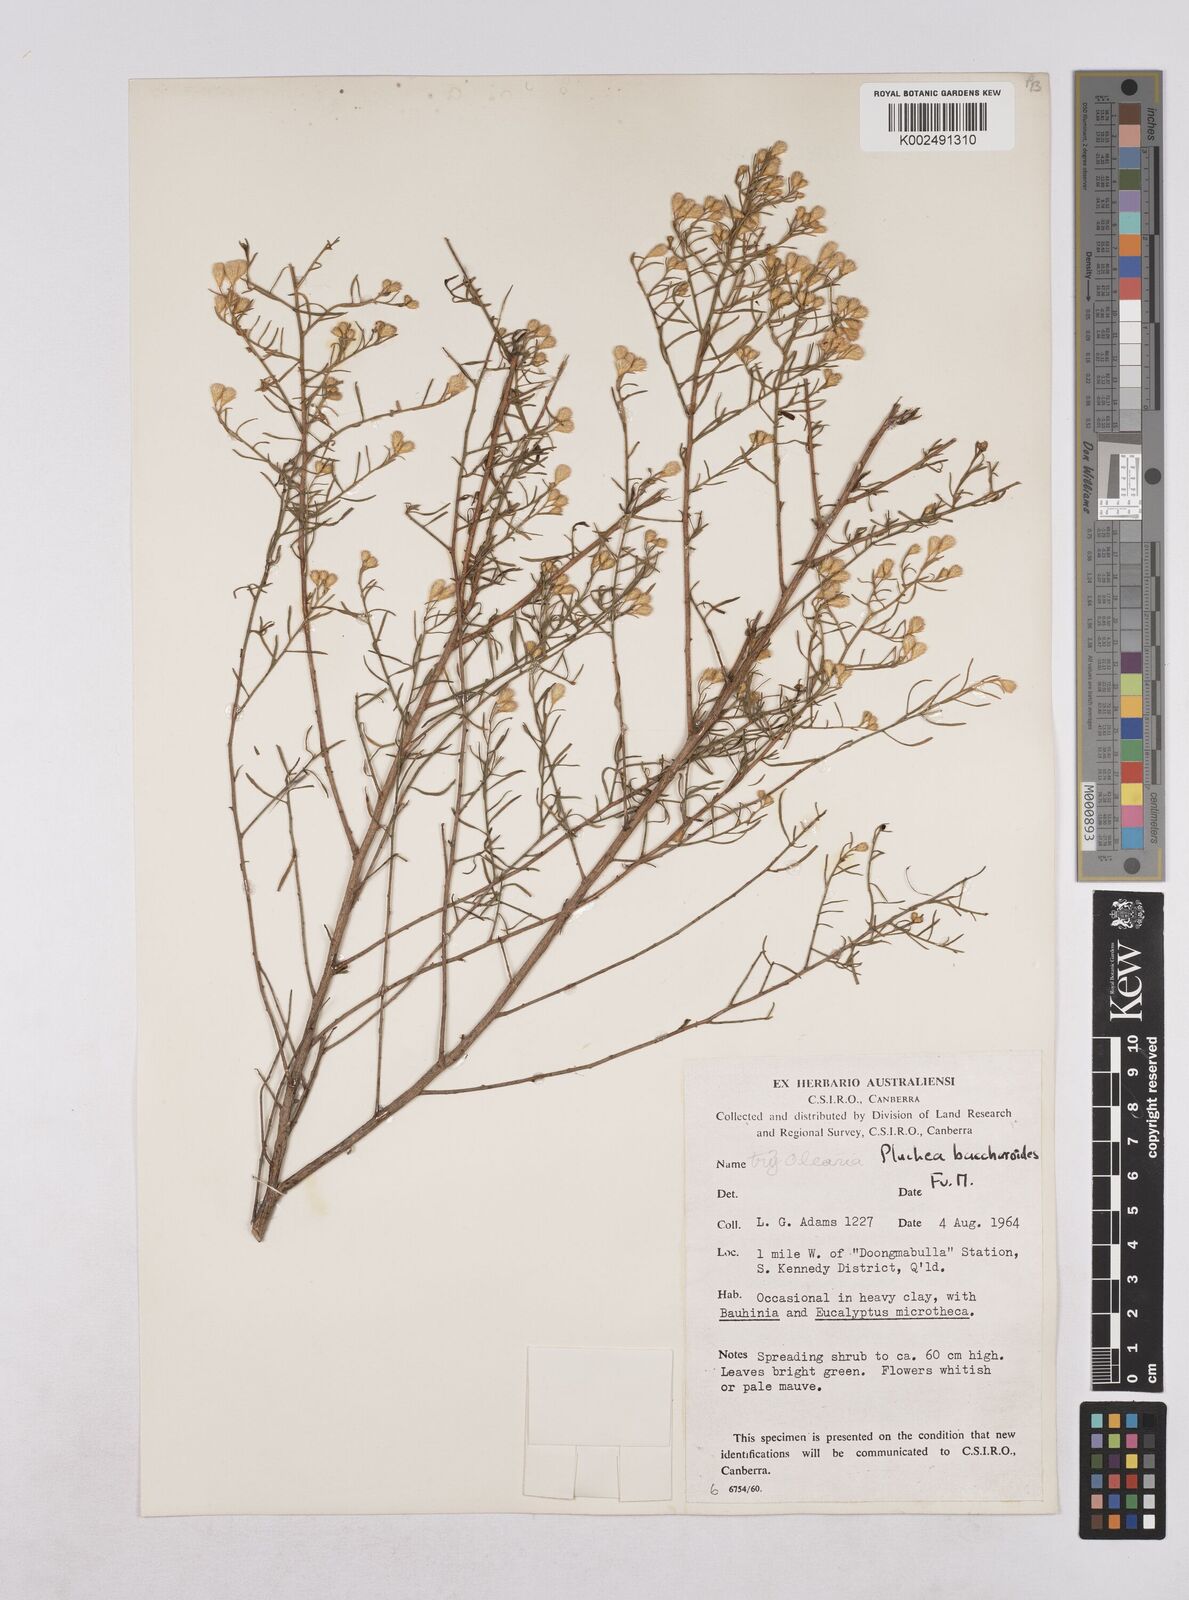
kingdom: Plantae
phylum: Tracheophyta
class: Magnoliopsida
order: Asterales
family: Asteraceae
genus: Pluchea
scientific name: Pluchea baccharoides
